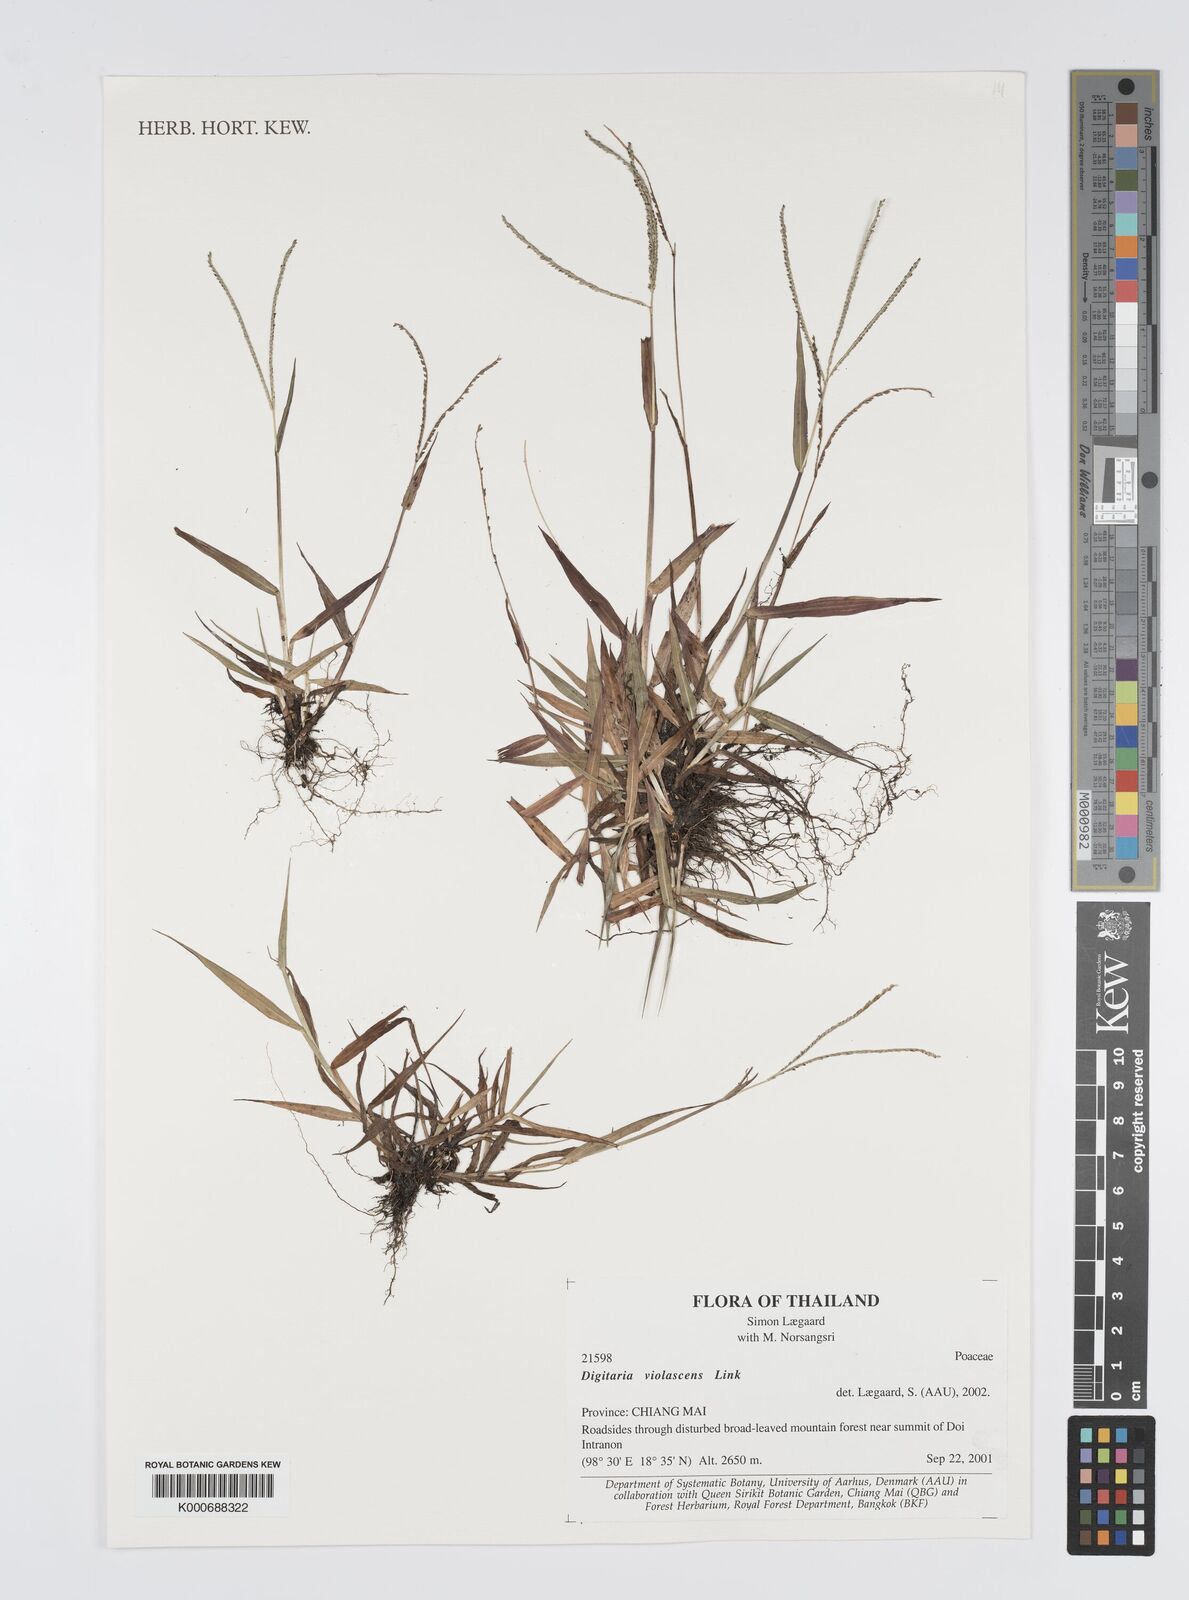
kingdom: Plantae
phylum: Tracheophyta
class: Liliopsida
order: Poales
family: Poaceae
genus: Digitaria
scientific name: Digitaria violascens
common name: Violet crabgrass
